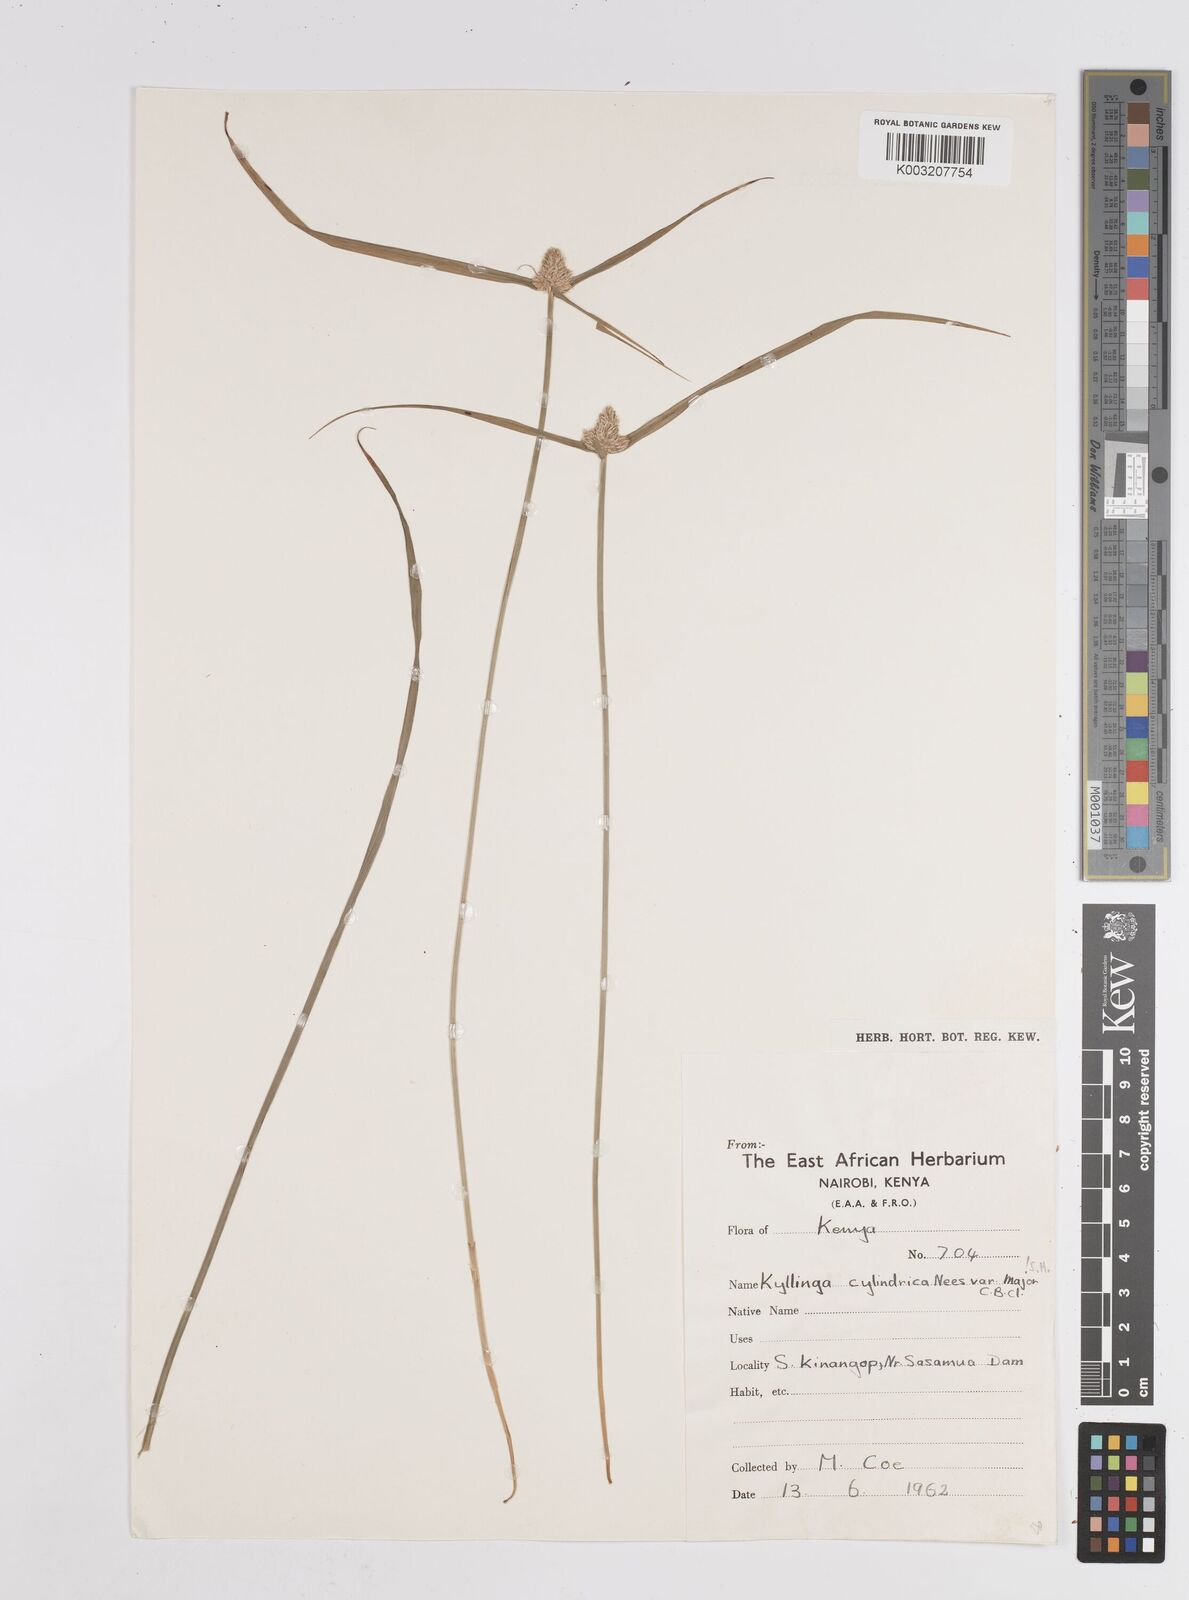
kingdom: Plantae
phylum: Tracheophyta
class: Liliopsida
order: Poales
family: Cyperaceae
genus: Cyperus
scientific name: Cyperus
